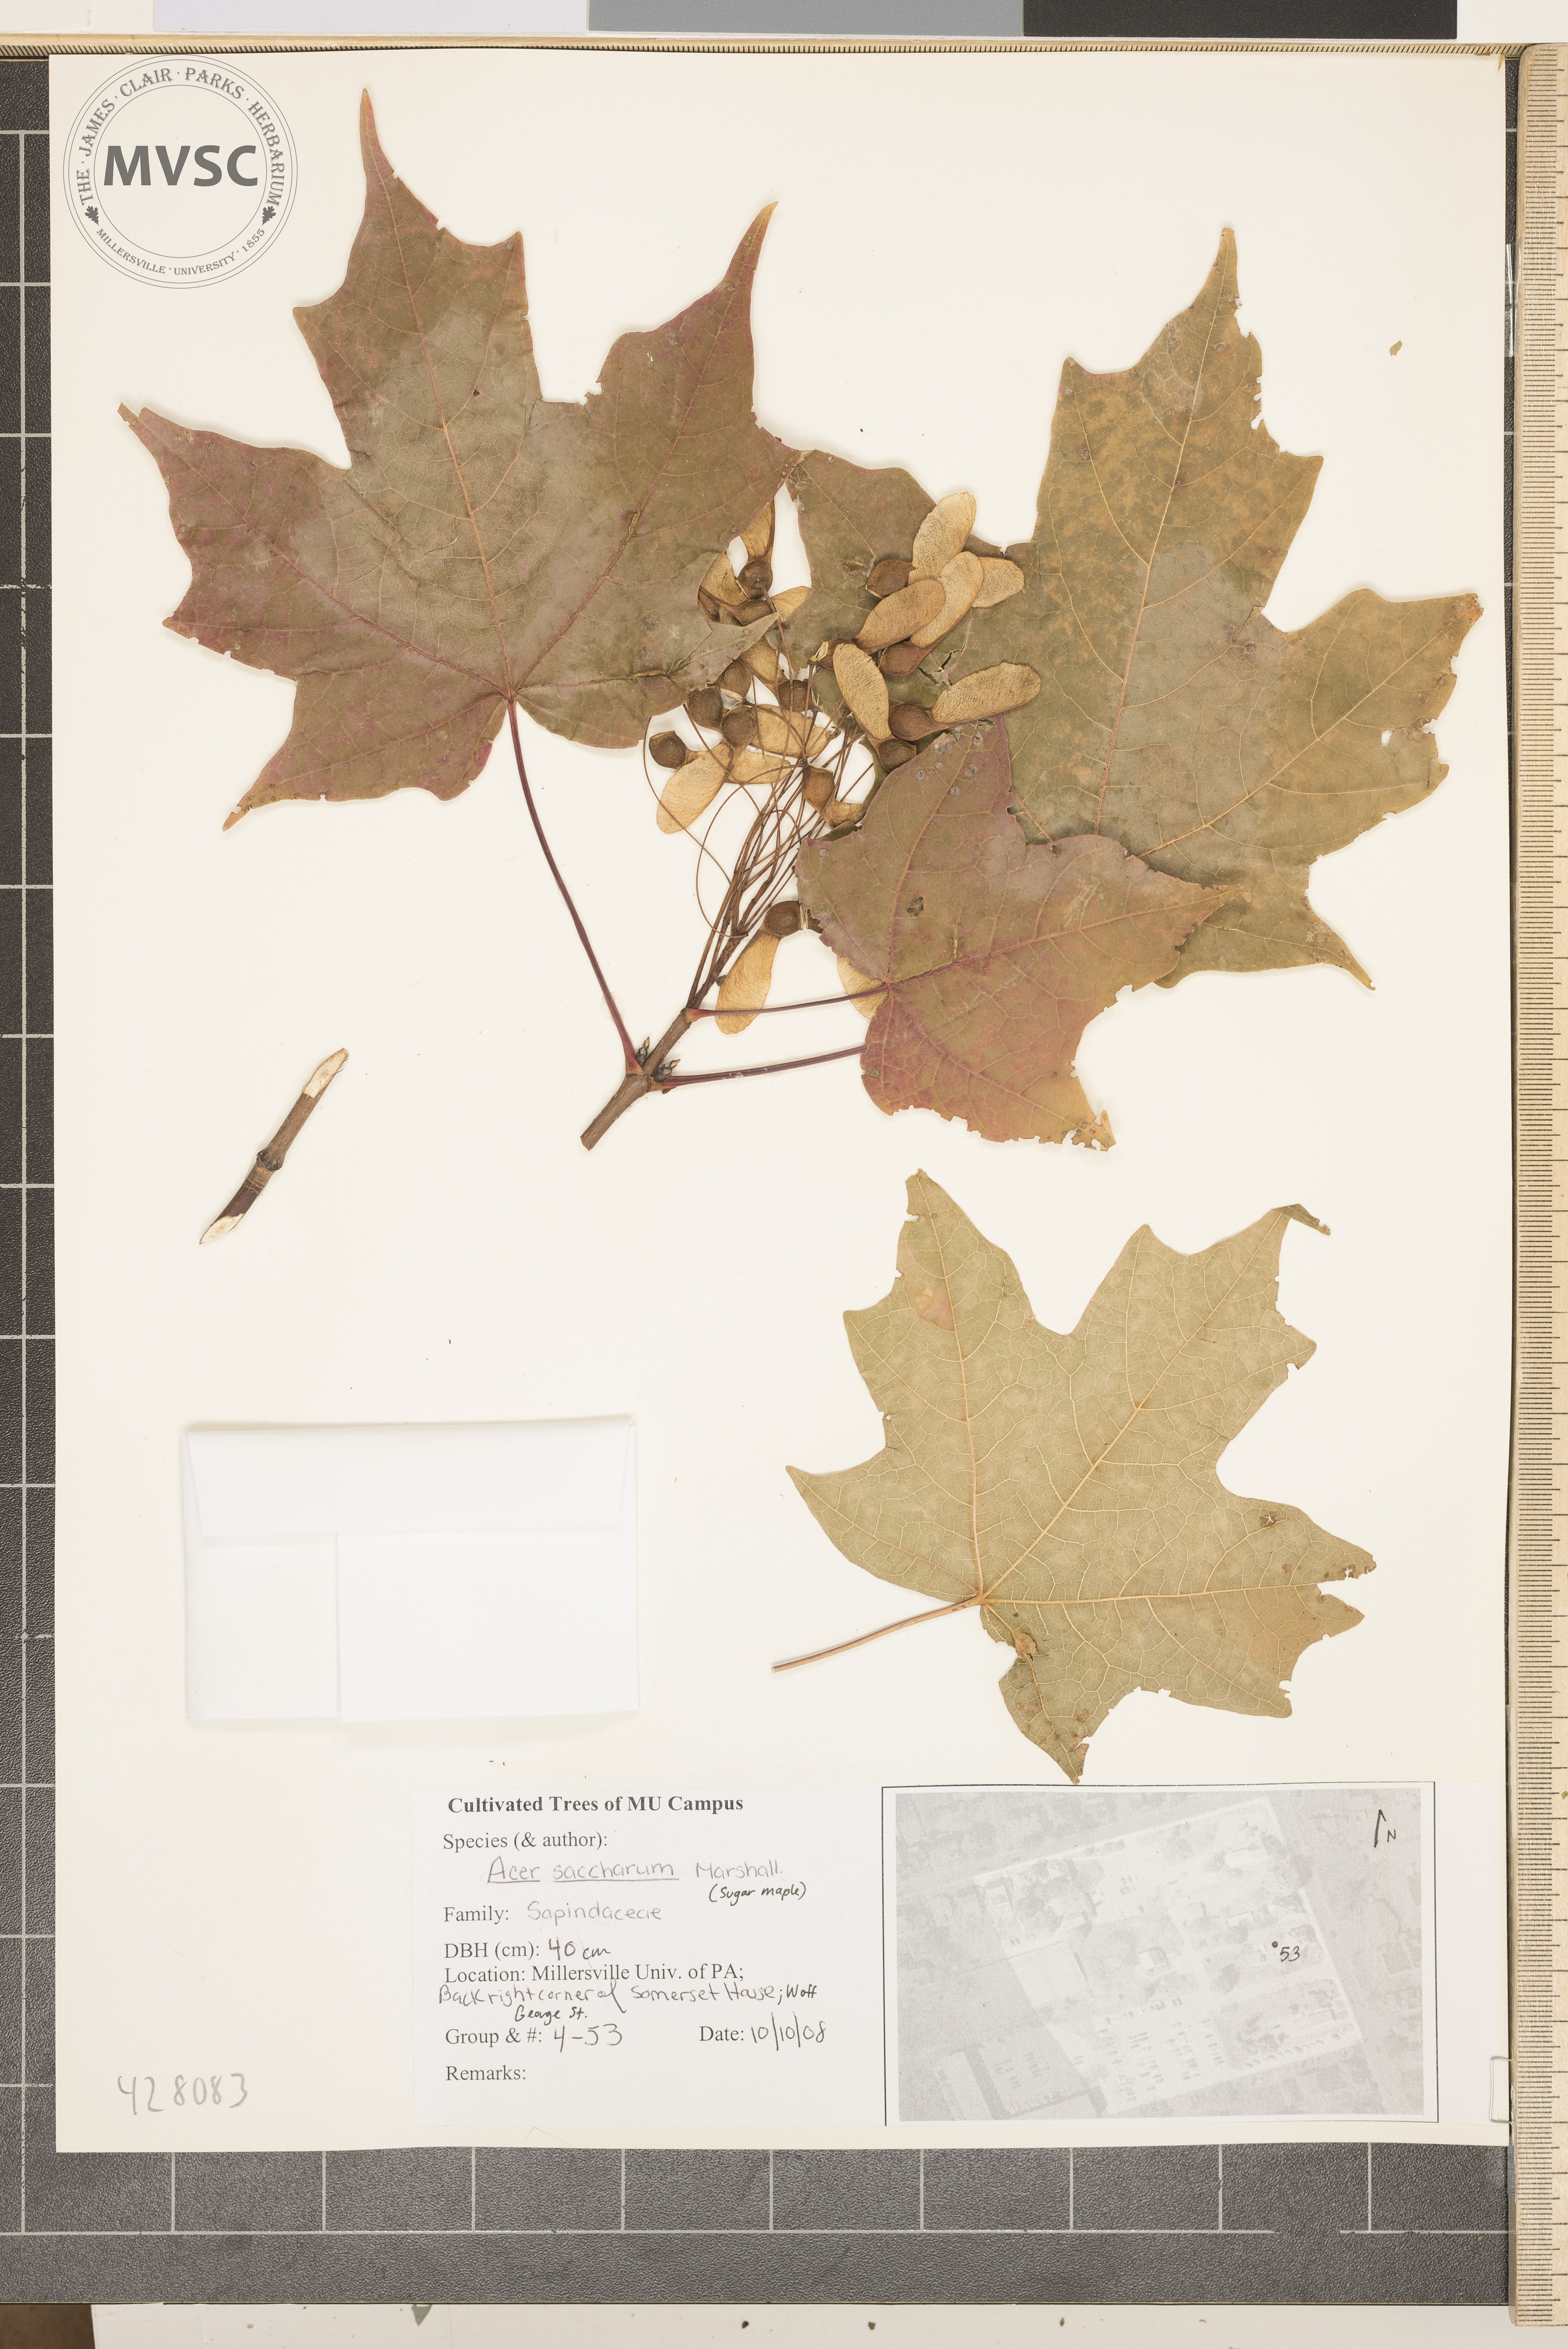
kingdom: Plantae
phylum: Tracheophyta
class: Magnoliopsida
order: Sapindales
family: Sapindaceae
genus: Acer
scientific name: Acer saccharum
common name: Sugar Maple
